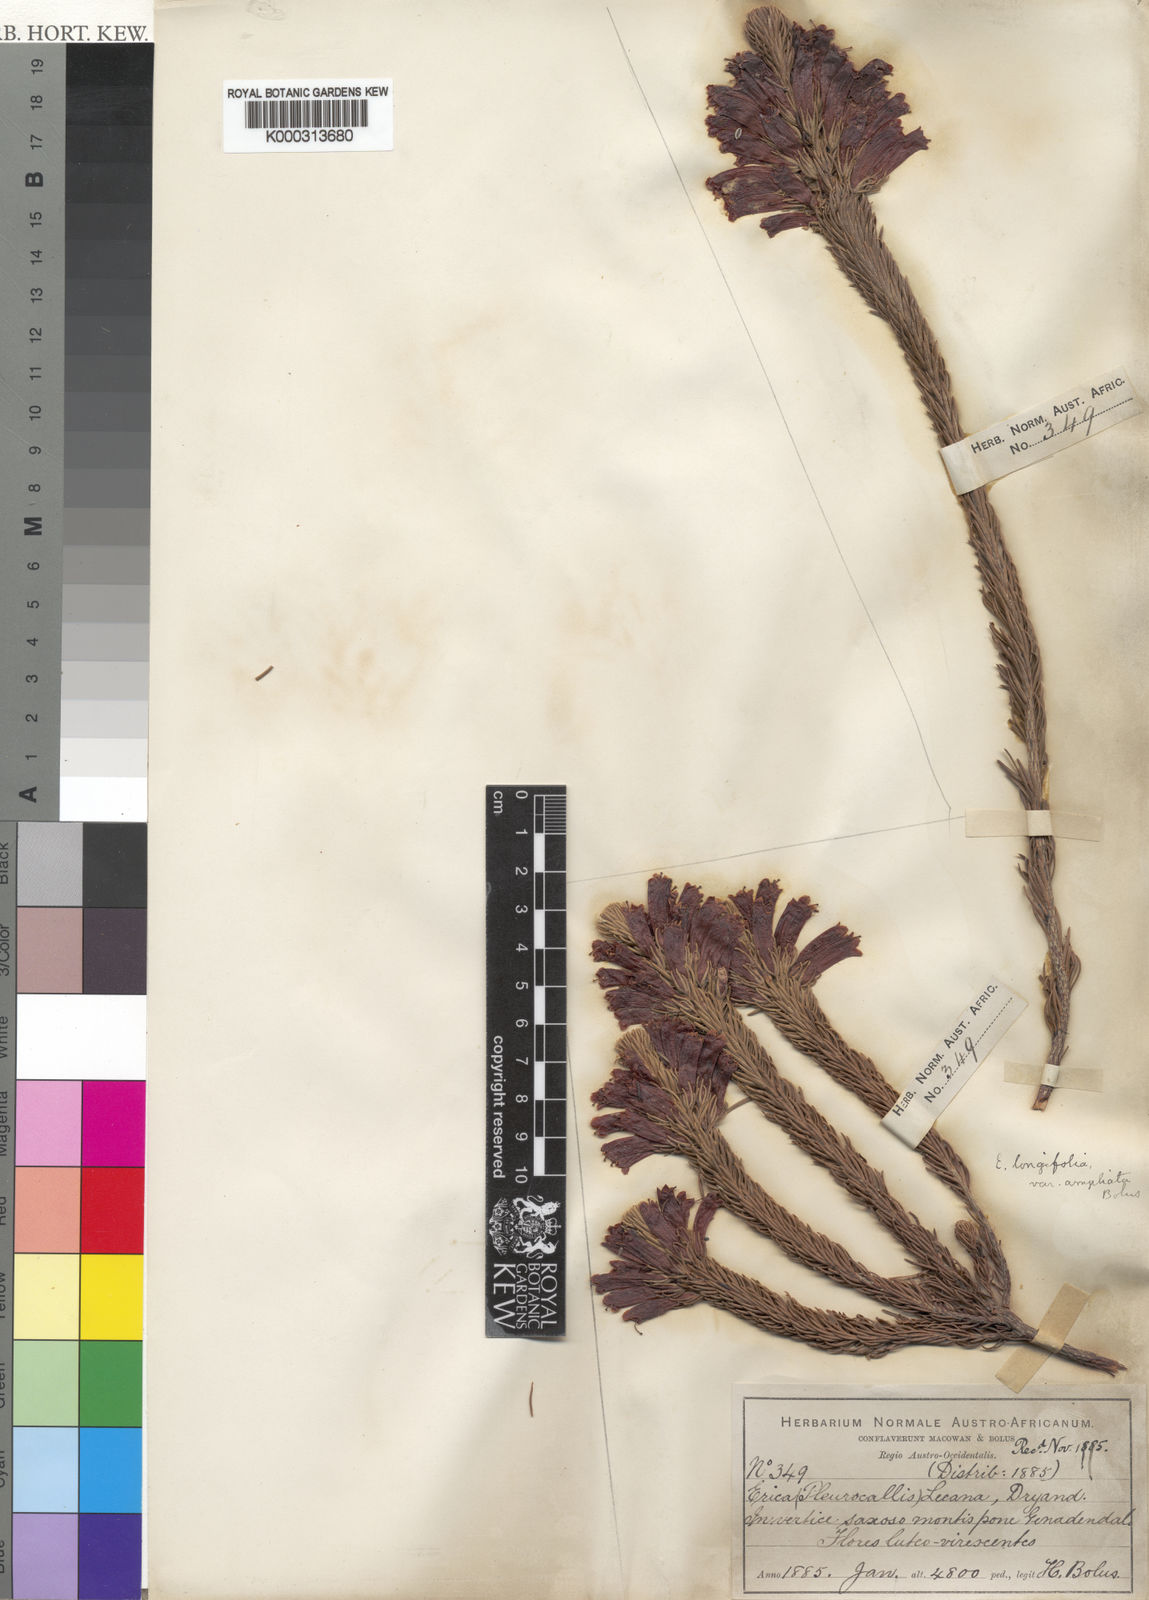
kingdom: Plantae
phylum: Tracheophyta
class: Magnoliopsida
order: Ericales
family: Ericaceae
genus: Erica
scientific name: Erica viscaria
